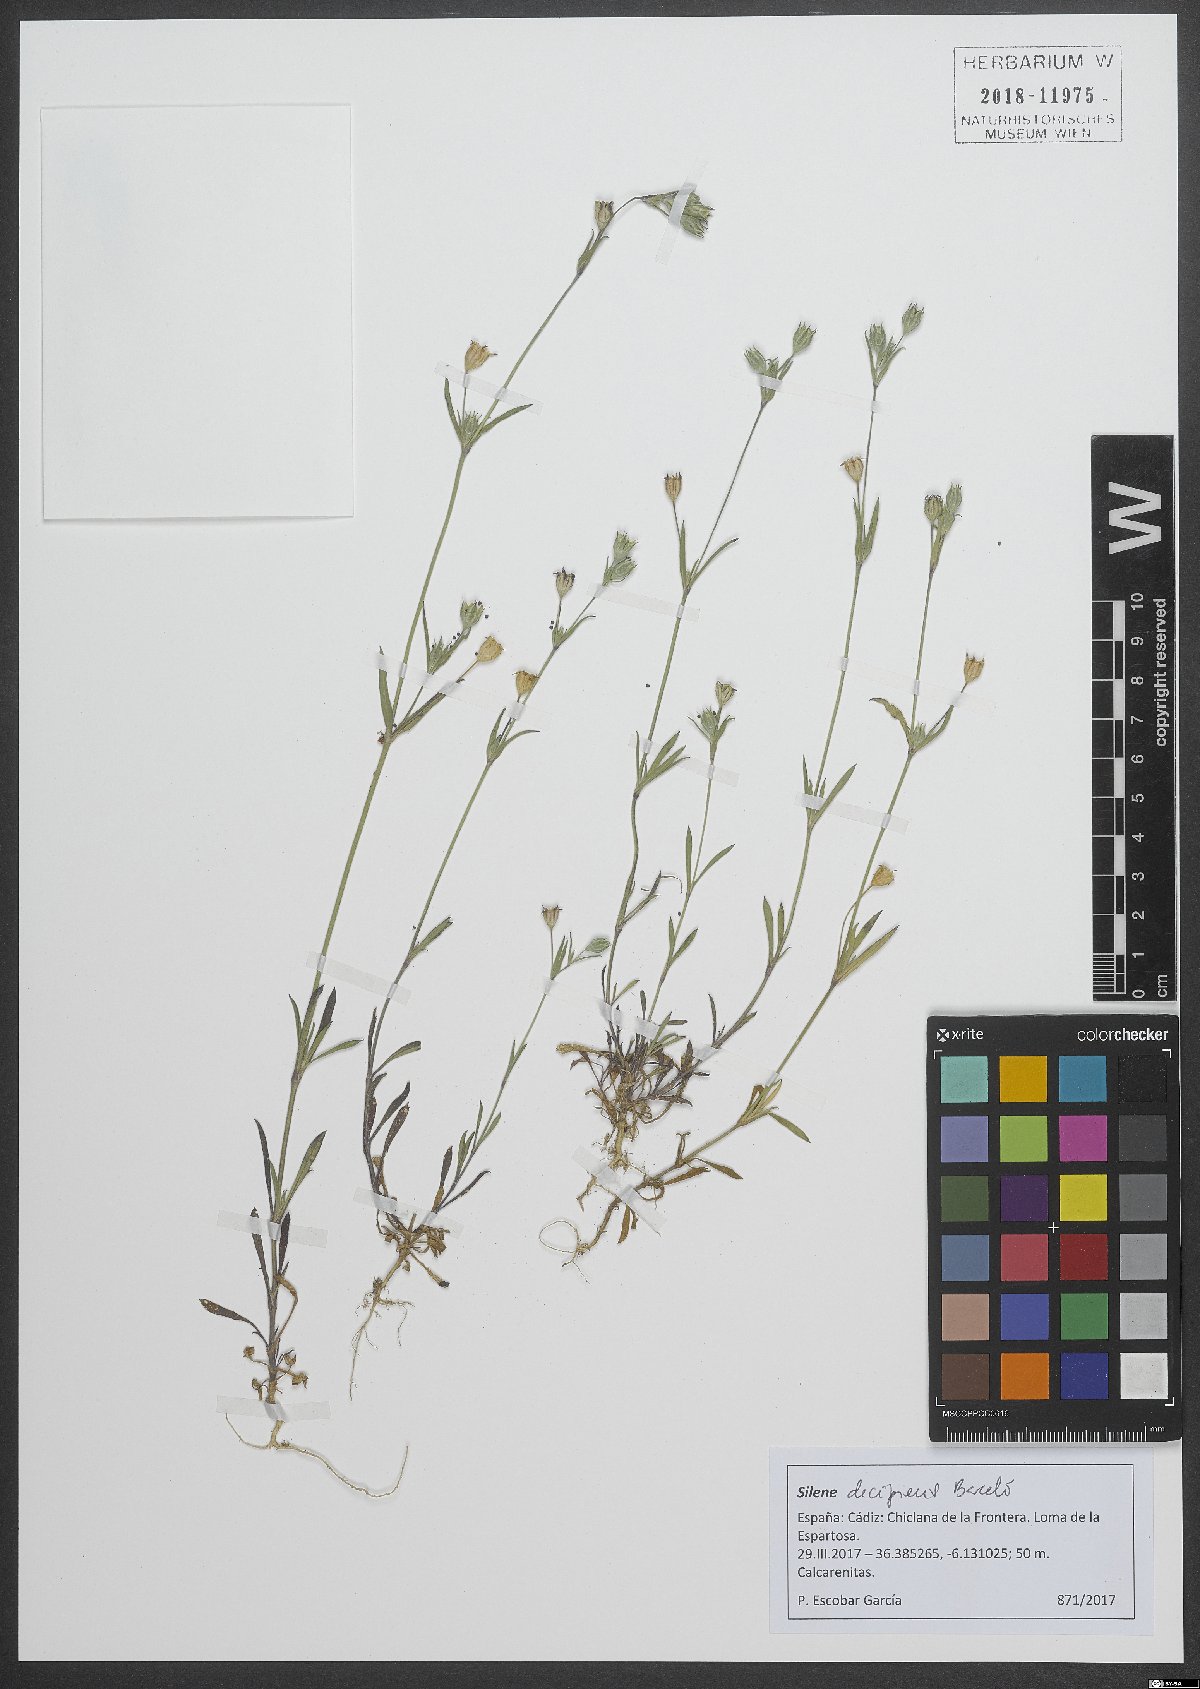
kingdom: Plantae
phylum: Tracheophyta
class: Magnoliopsida
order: Caryophyllales
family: Caryophyllaceae
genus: Silene
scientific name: Silene apetala
